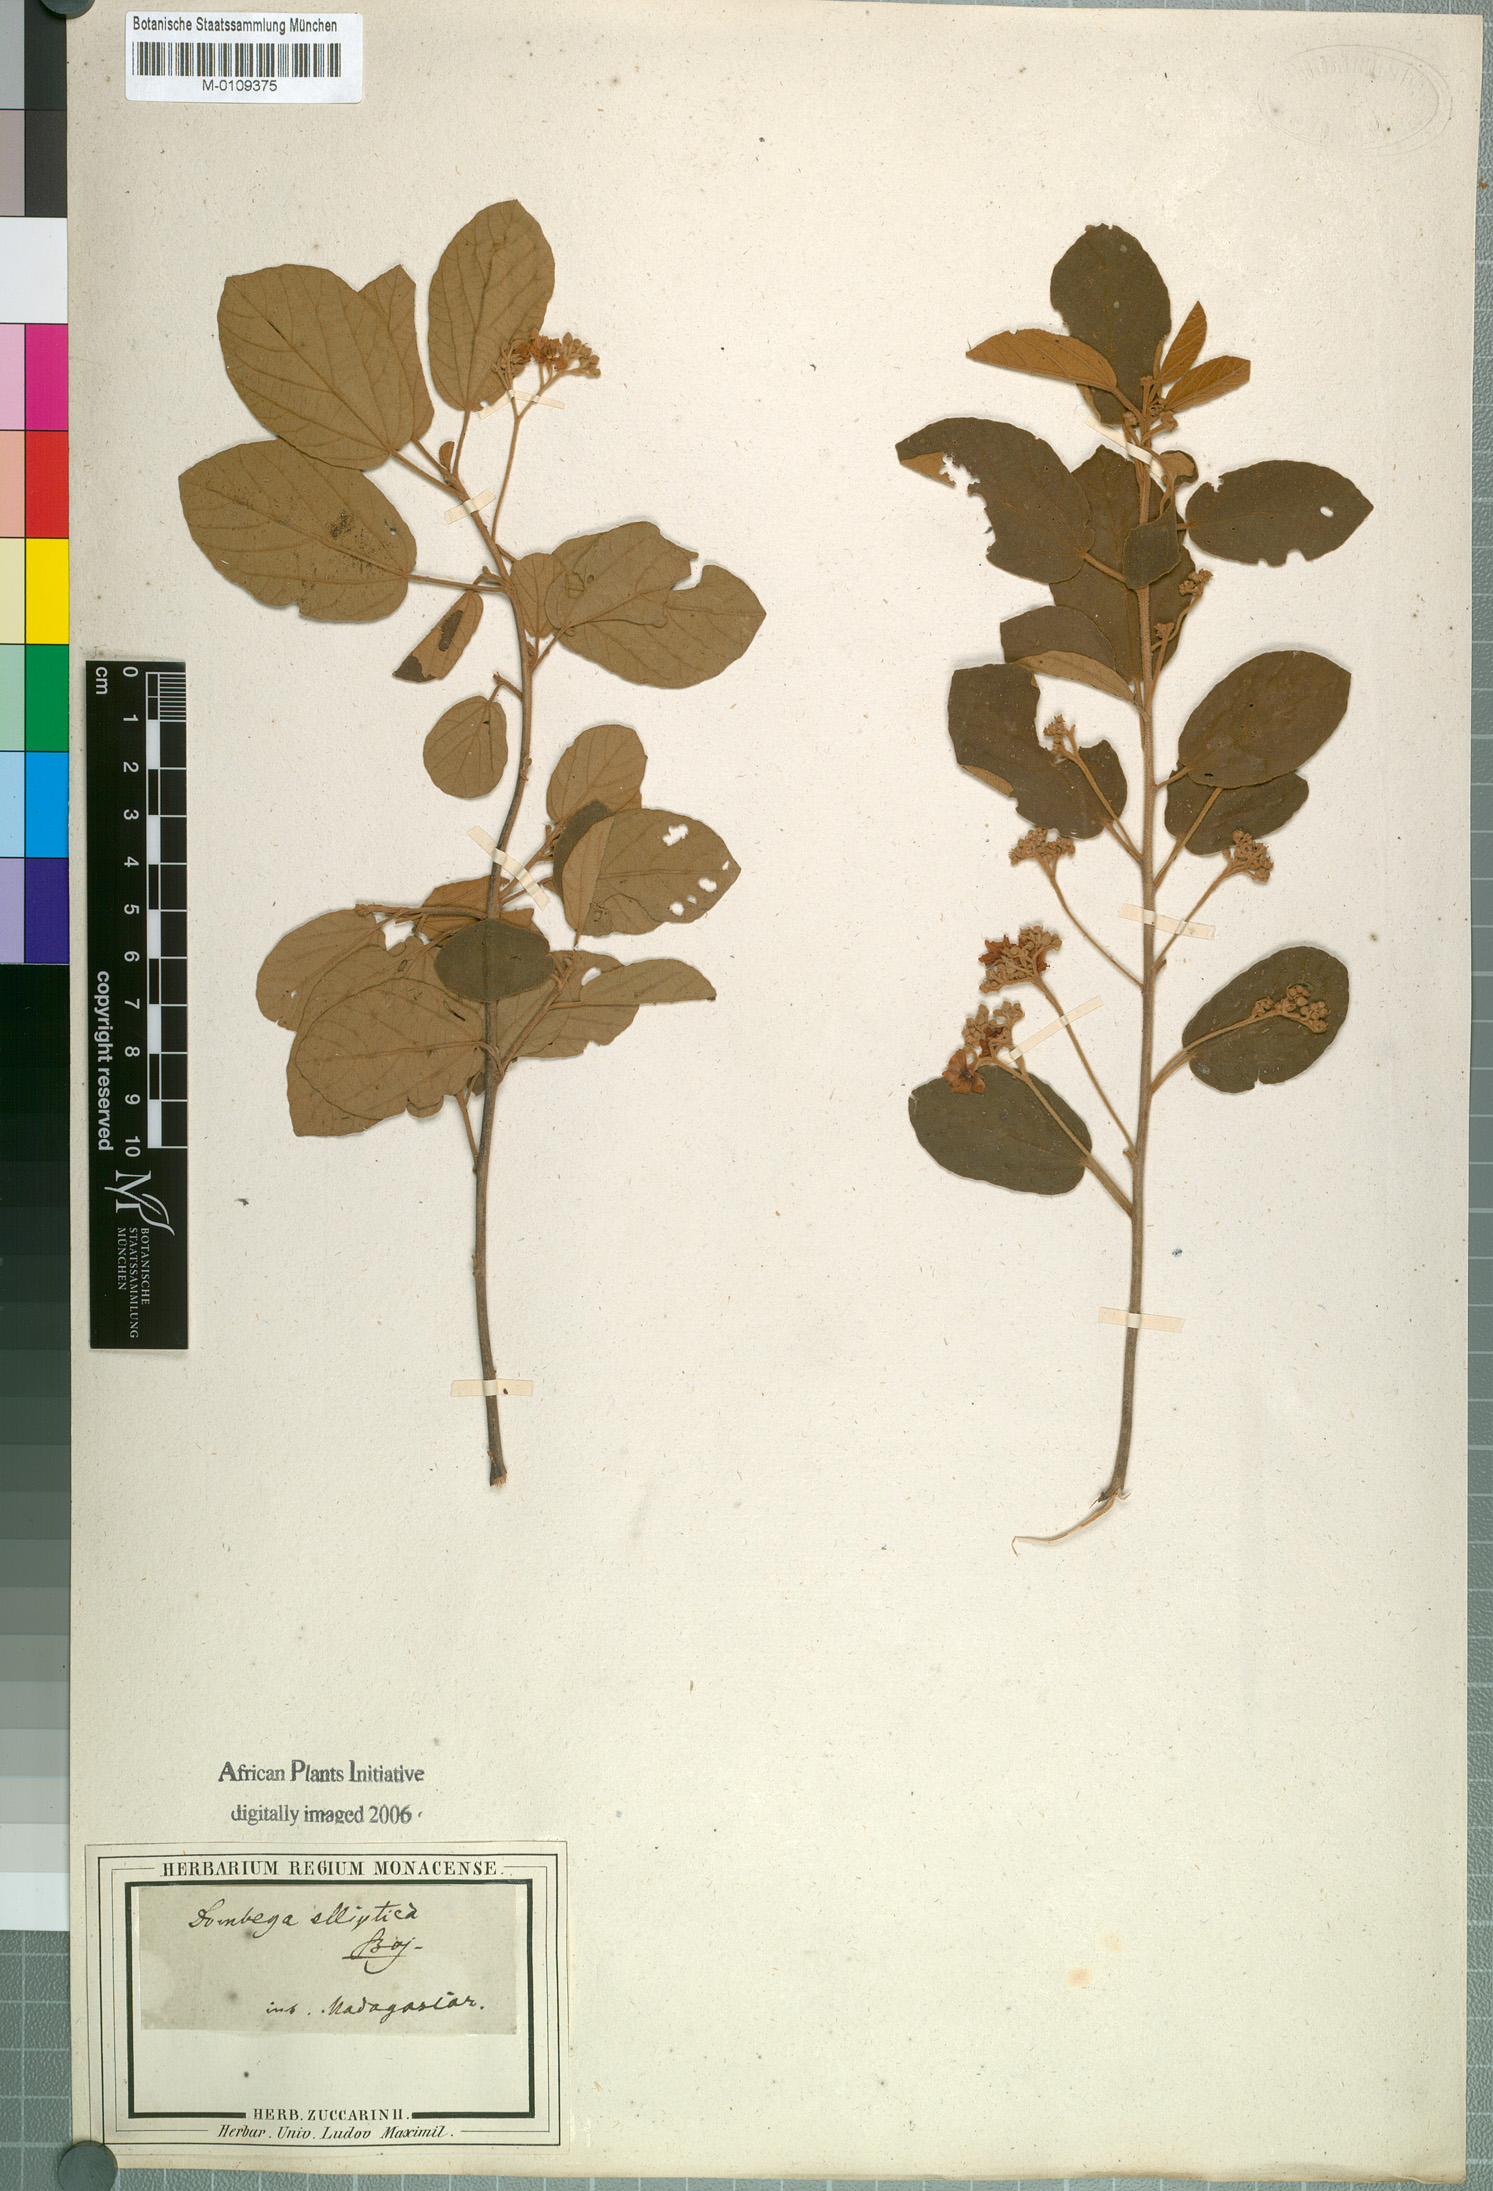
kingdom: Plantae
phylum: Tracheophyta
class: Magnoliopsida
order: Malvales
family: Malvaceae
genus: Dombeya
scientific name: Dombeya elliptica
